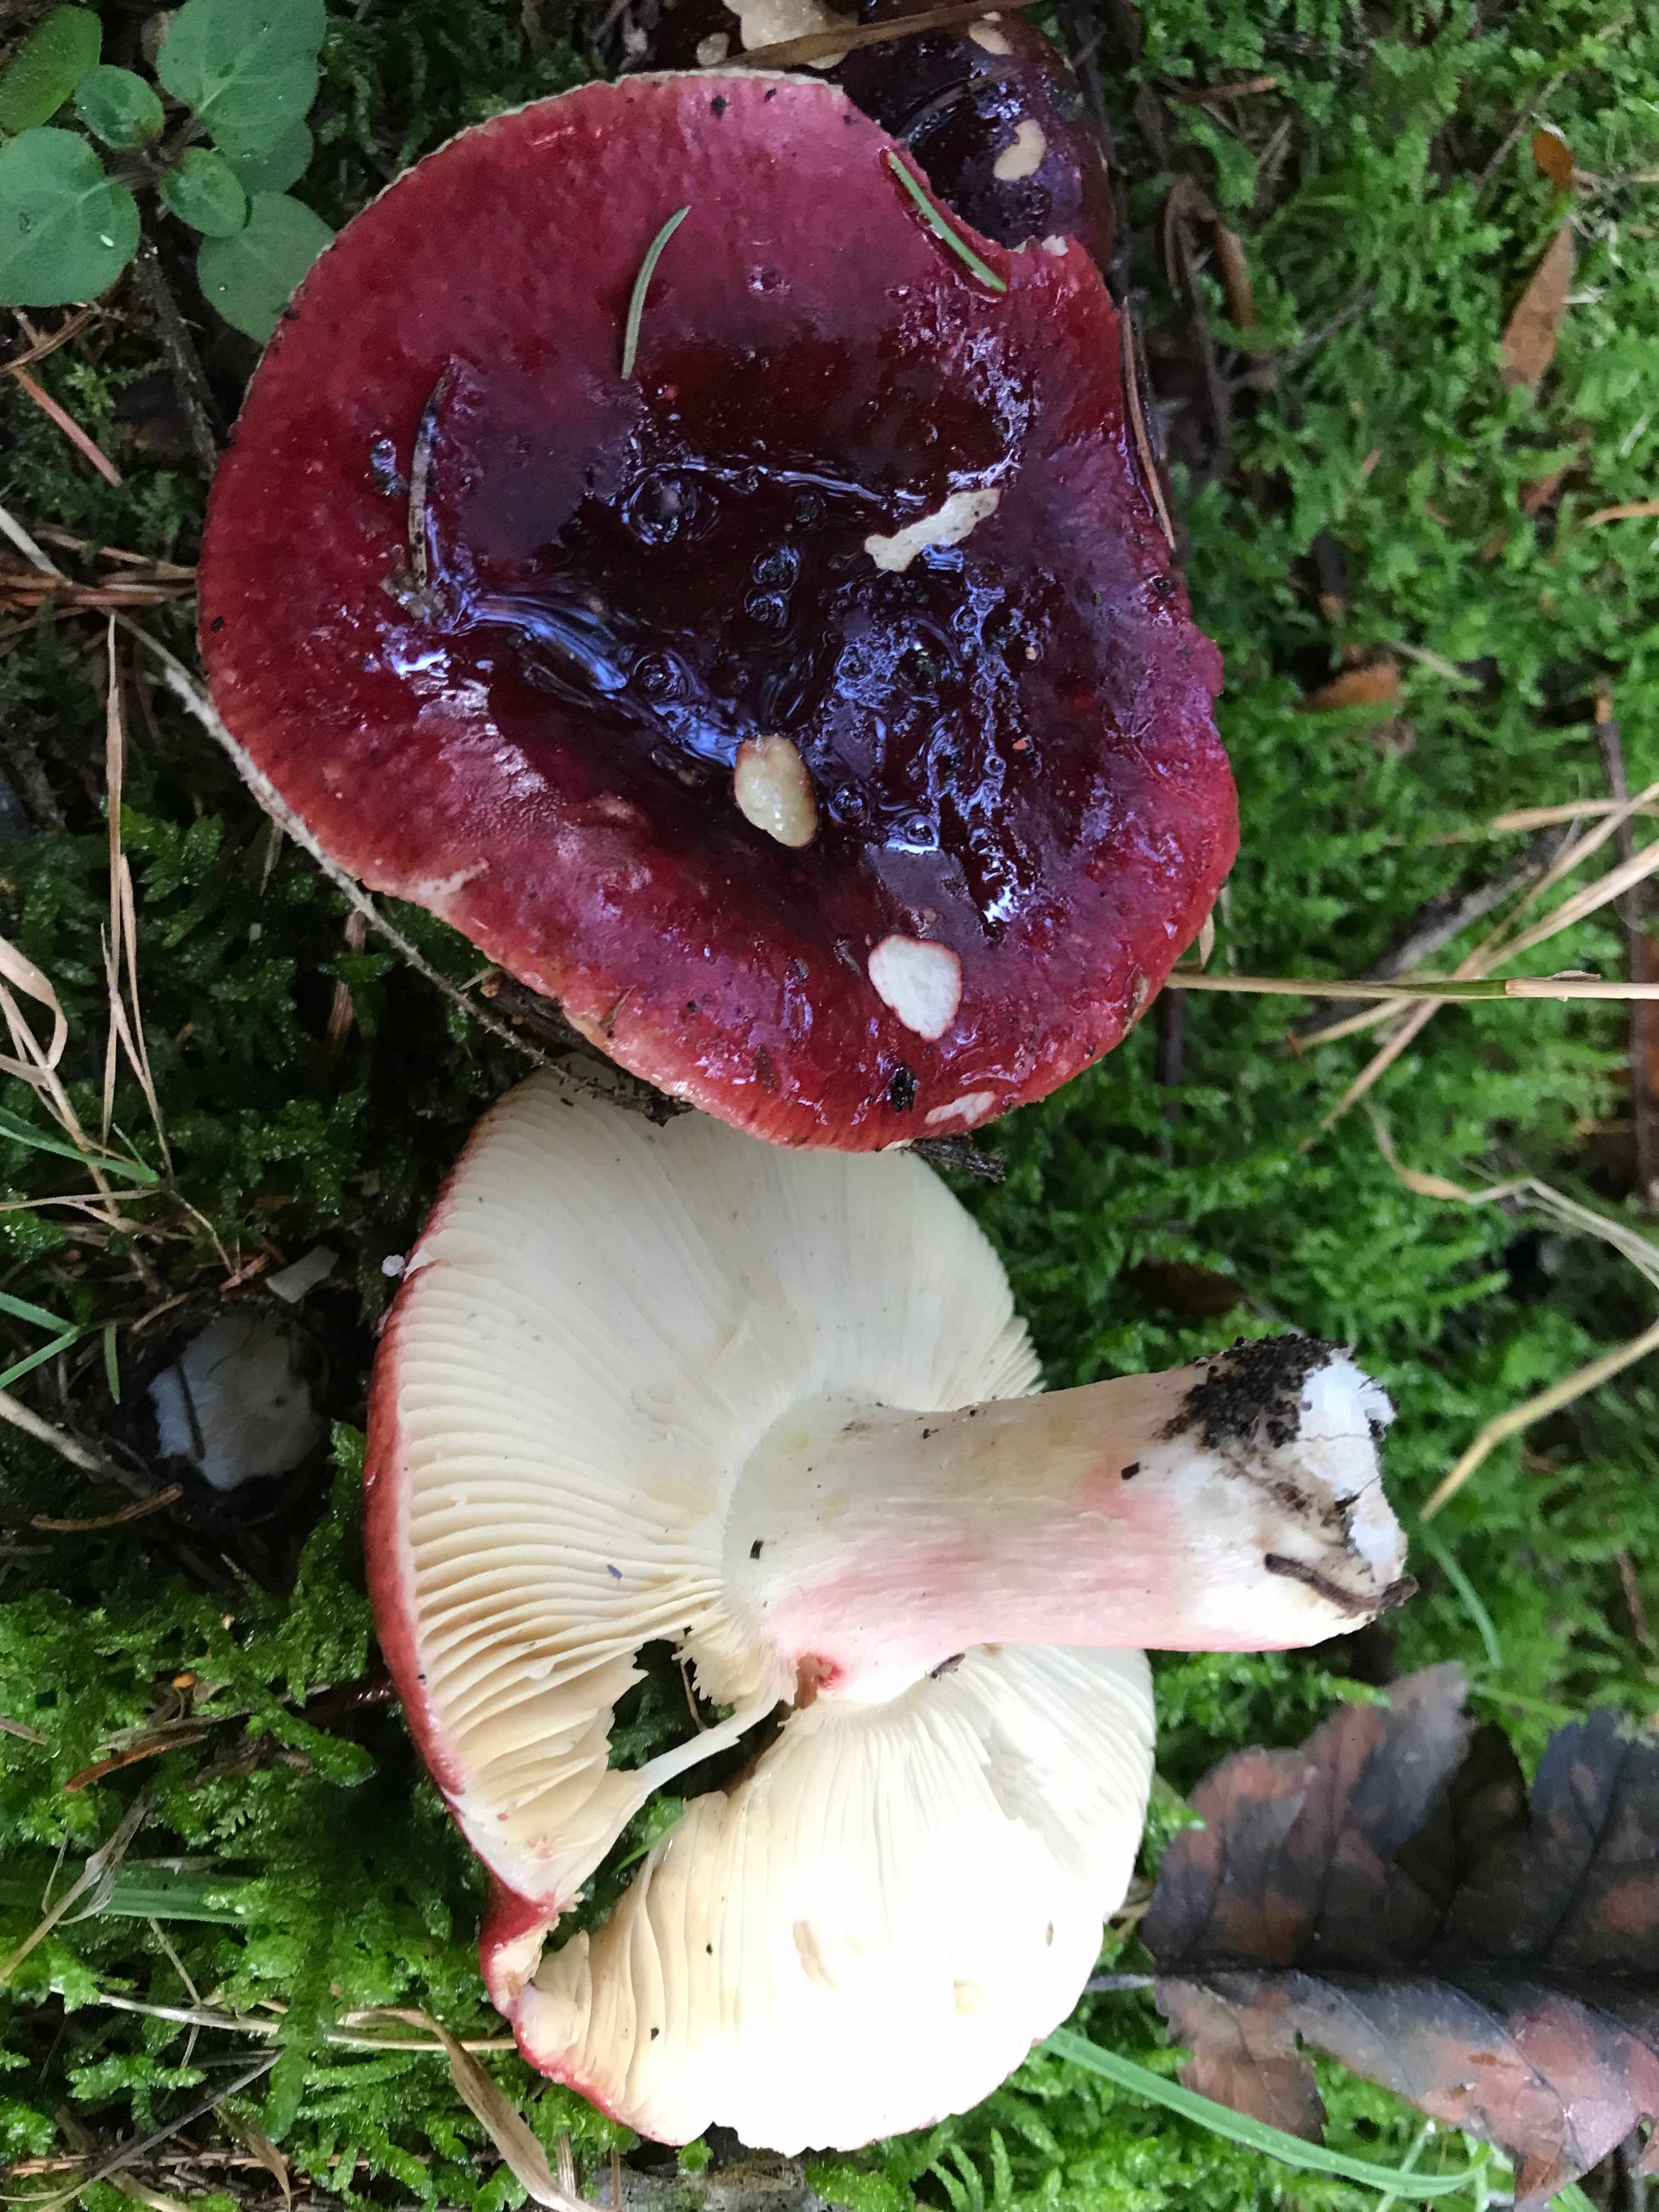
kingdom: Fungi
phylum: Basidiomycota
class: Agaricomycetes
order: Russulales
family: Russulaceae
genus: Russula
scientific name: Russula
